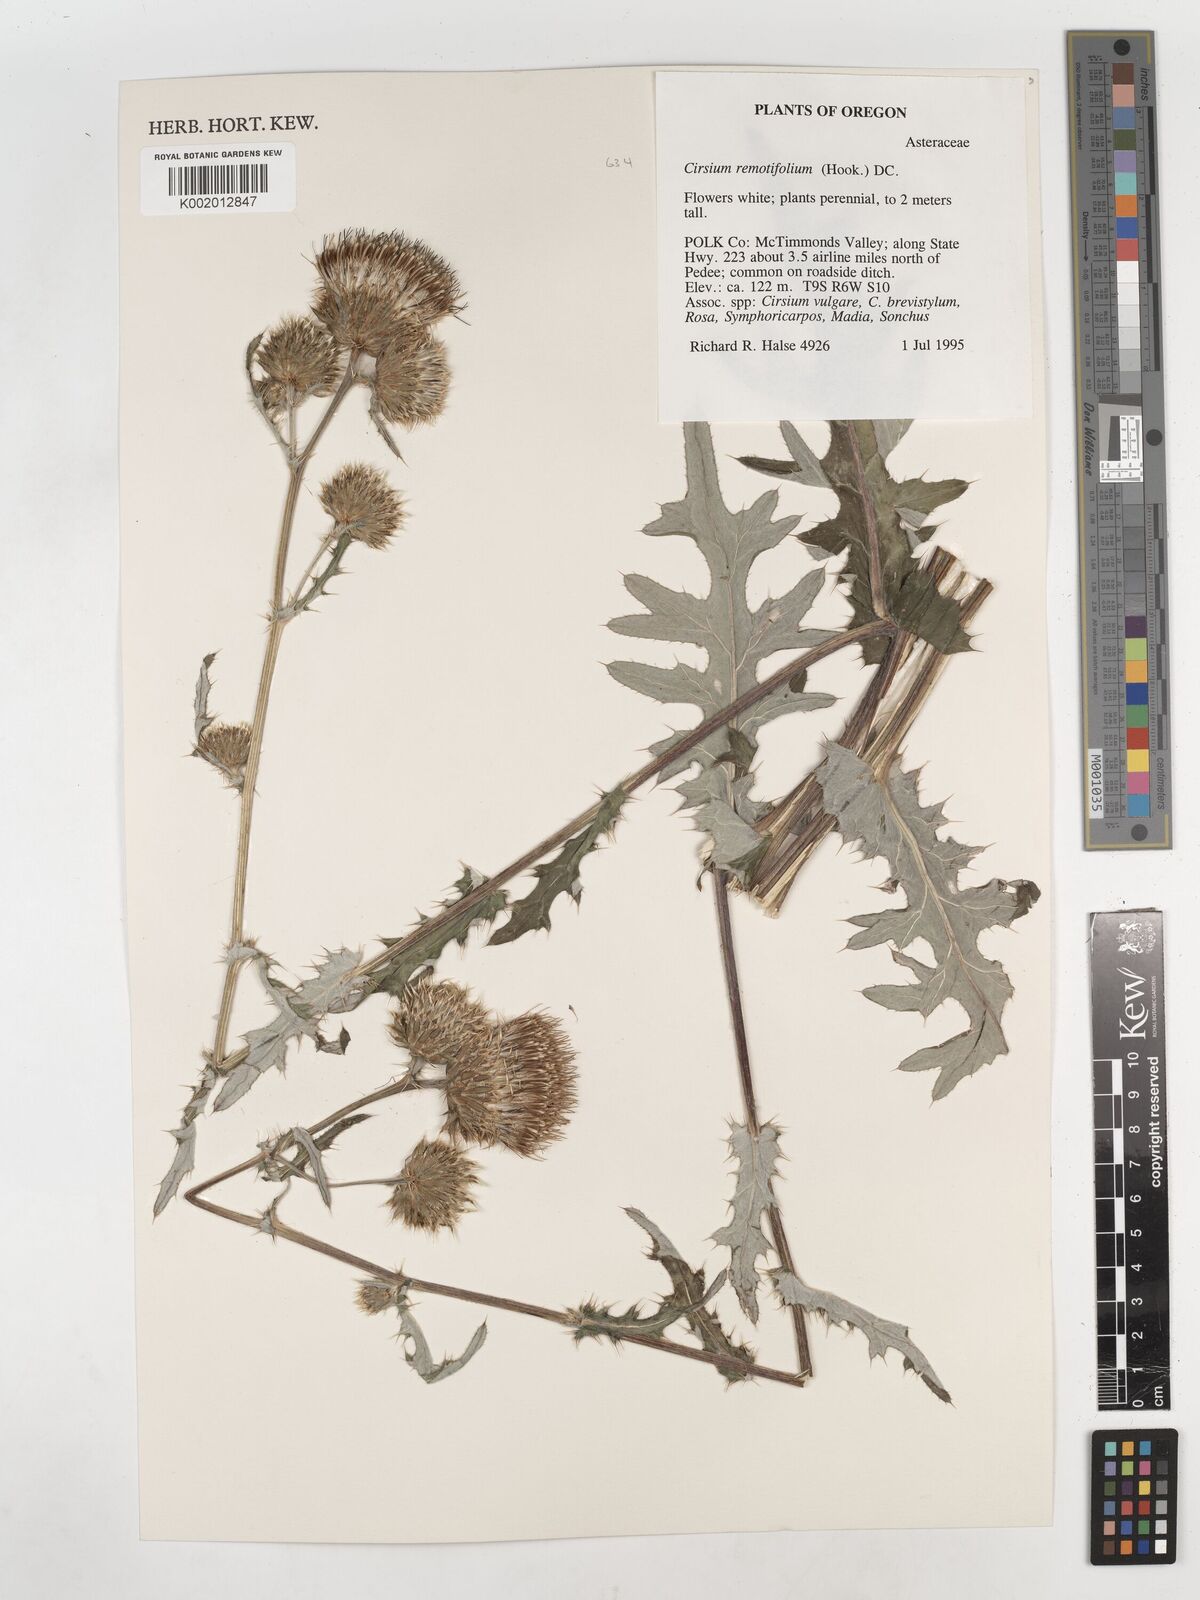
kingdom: Plantae
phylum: Tracheophyta
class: Magnoliopsida
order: Asterales
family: Asteraceae
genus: Cirsium
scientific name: Cirsium remotifolium
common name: Remote-leaf thistle
